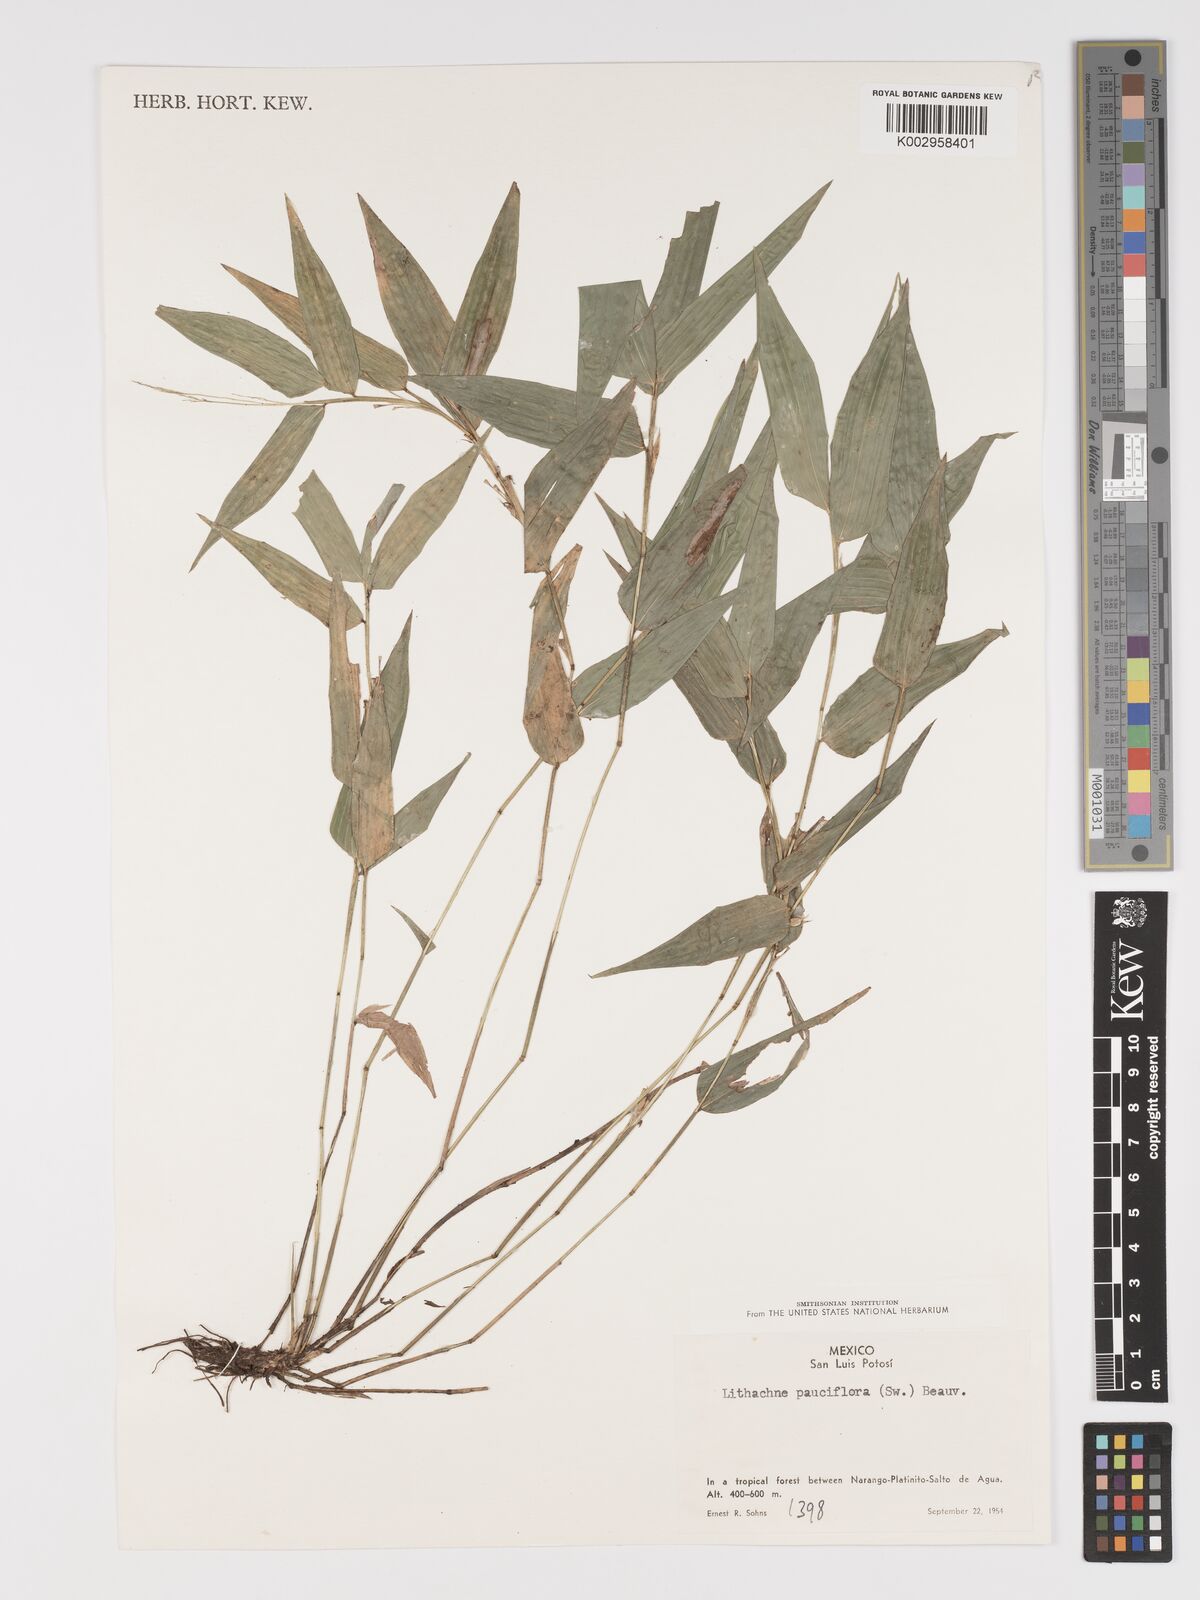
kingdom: Plantae
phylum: Tracheophyta
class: Liliopsida
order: Poales
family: Poaceae
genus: Lithachne
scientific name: Lithachne pauciflora
